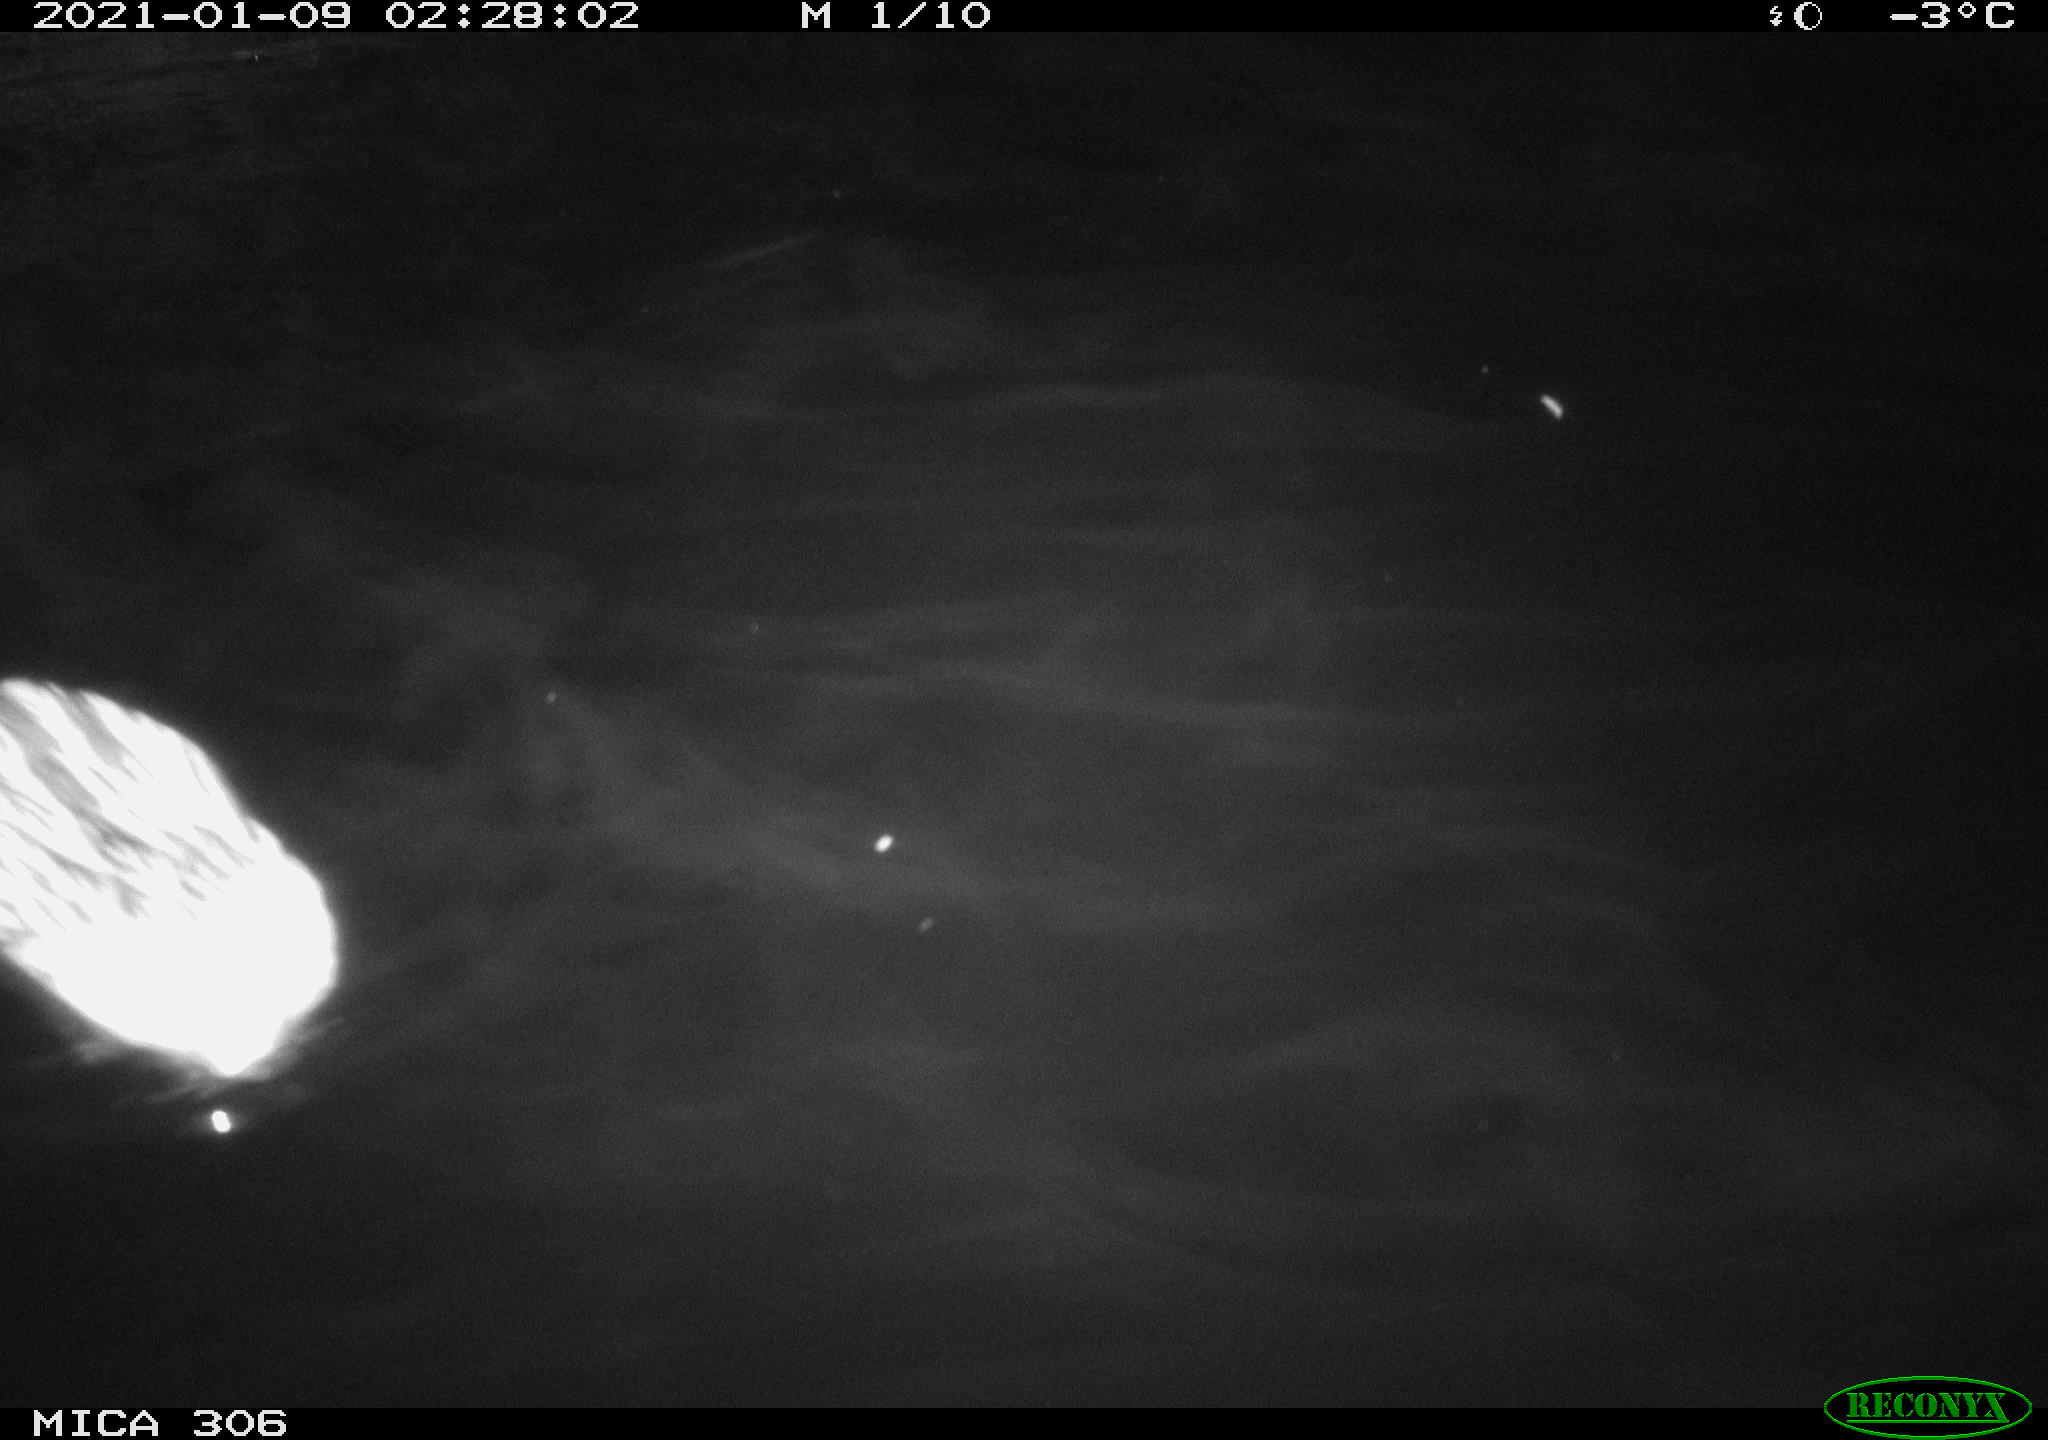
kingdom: Animalia
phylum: Chordata
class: Mammalia
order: Rodentia
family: Cricetidae
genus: Ondatra
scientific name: Ondatra zibethicus
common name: Muskrat
